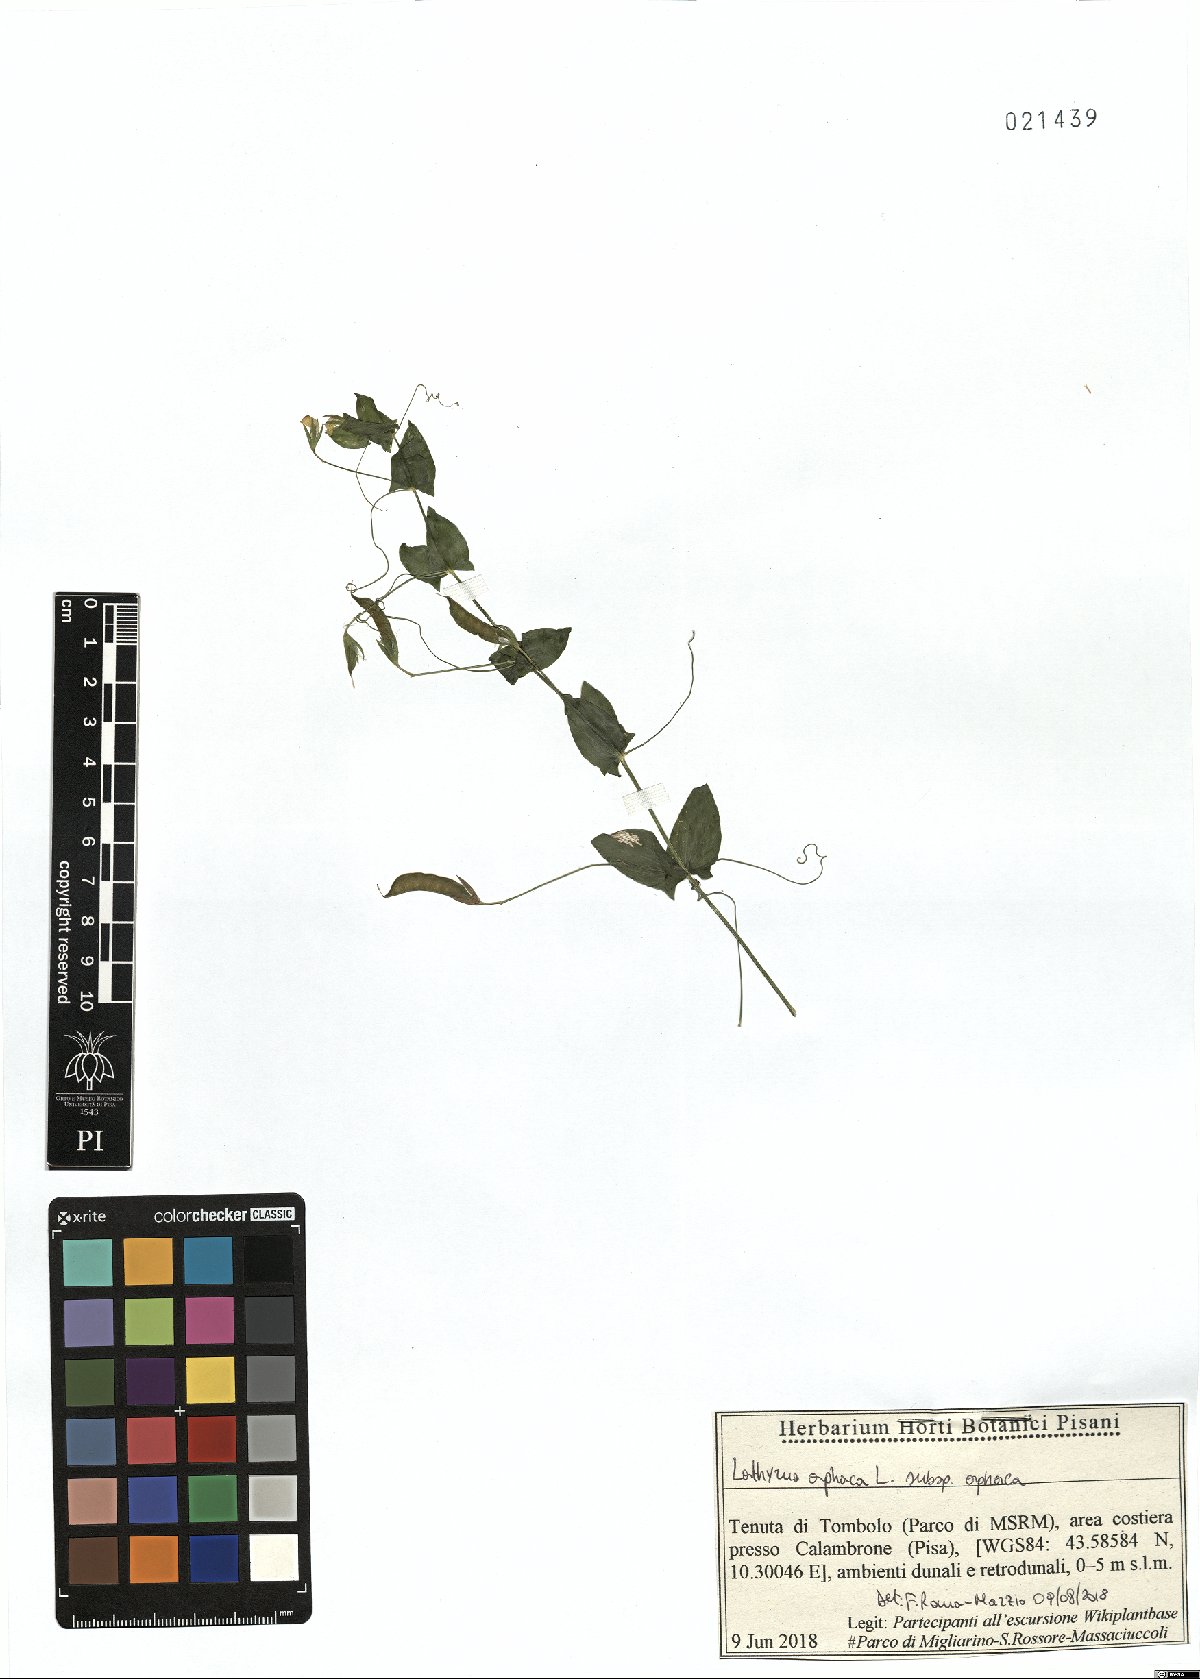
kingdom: Plantae
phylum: Tracheophyta
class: Magnoliopsida
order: Fabales
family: Fabaceae
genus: Lathyrus
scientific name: Lathyrus aphaca
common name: Yellow vetchling
